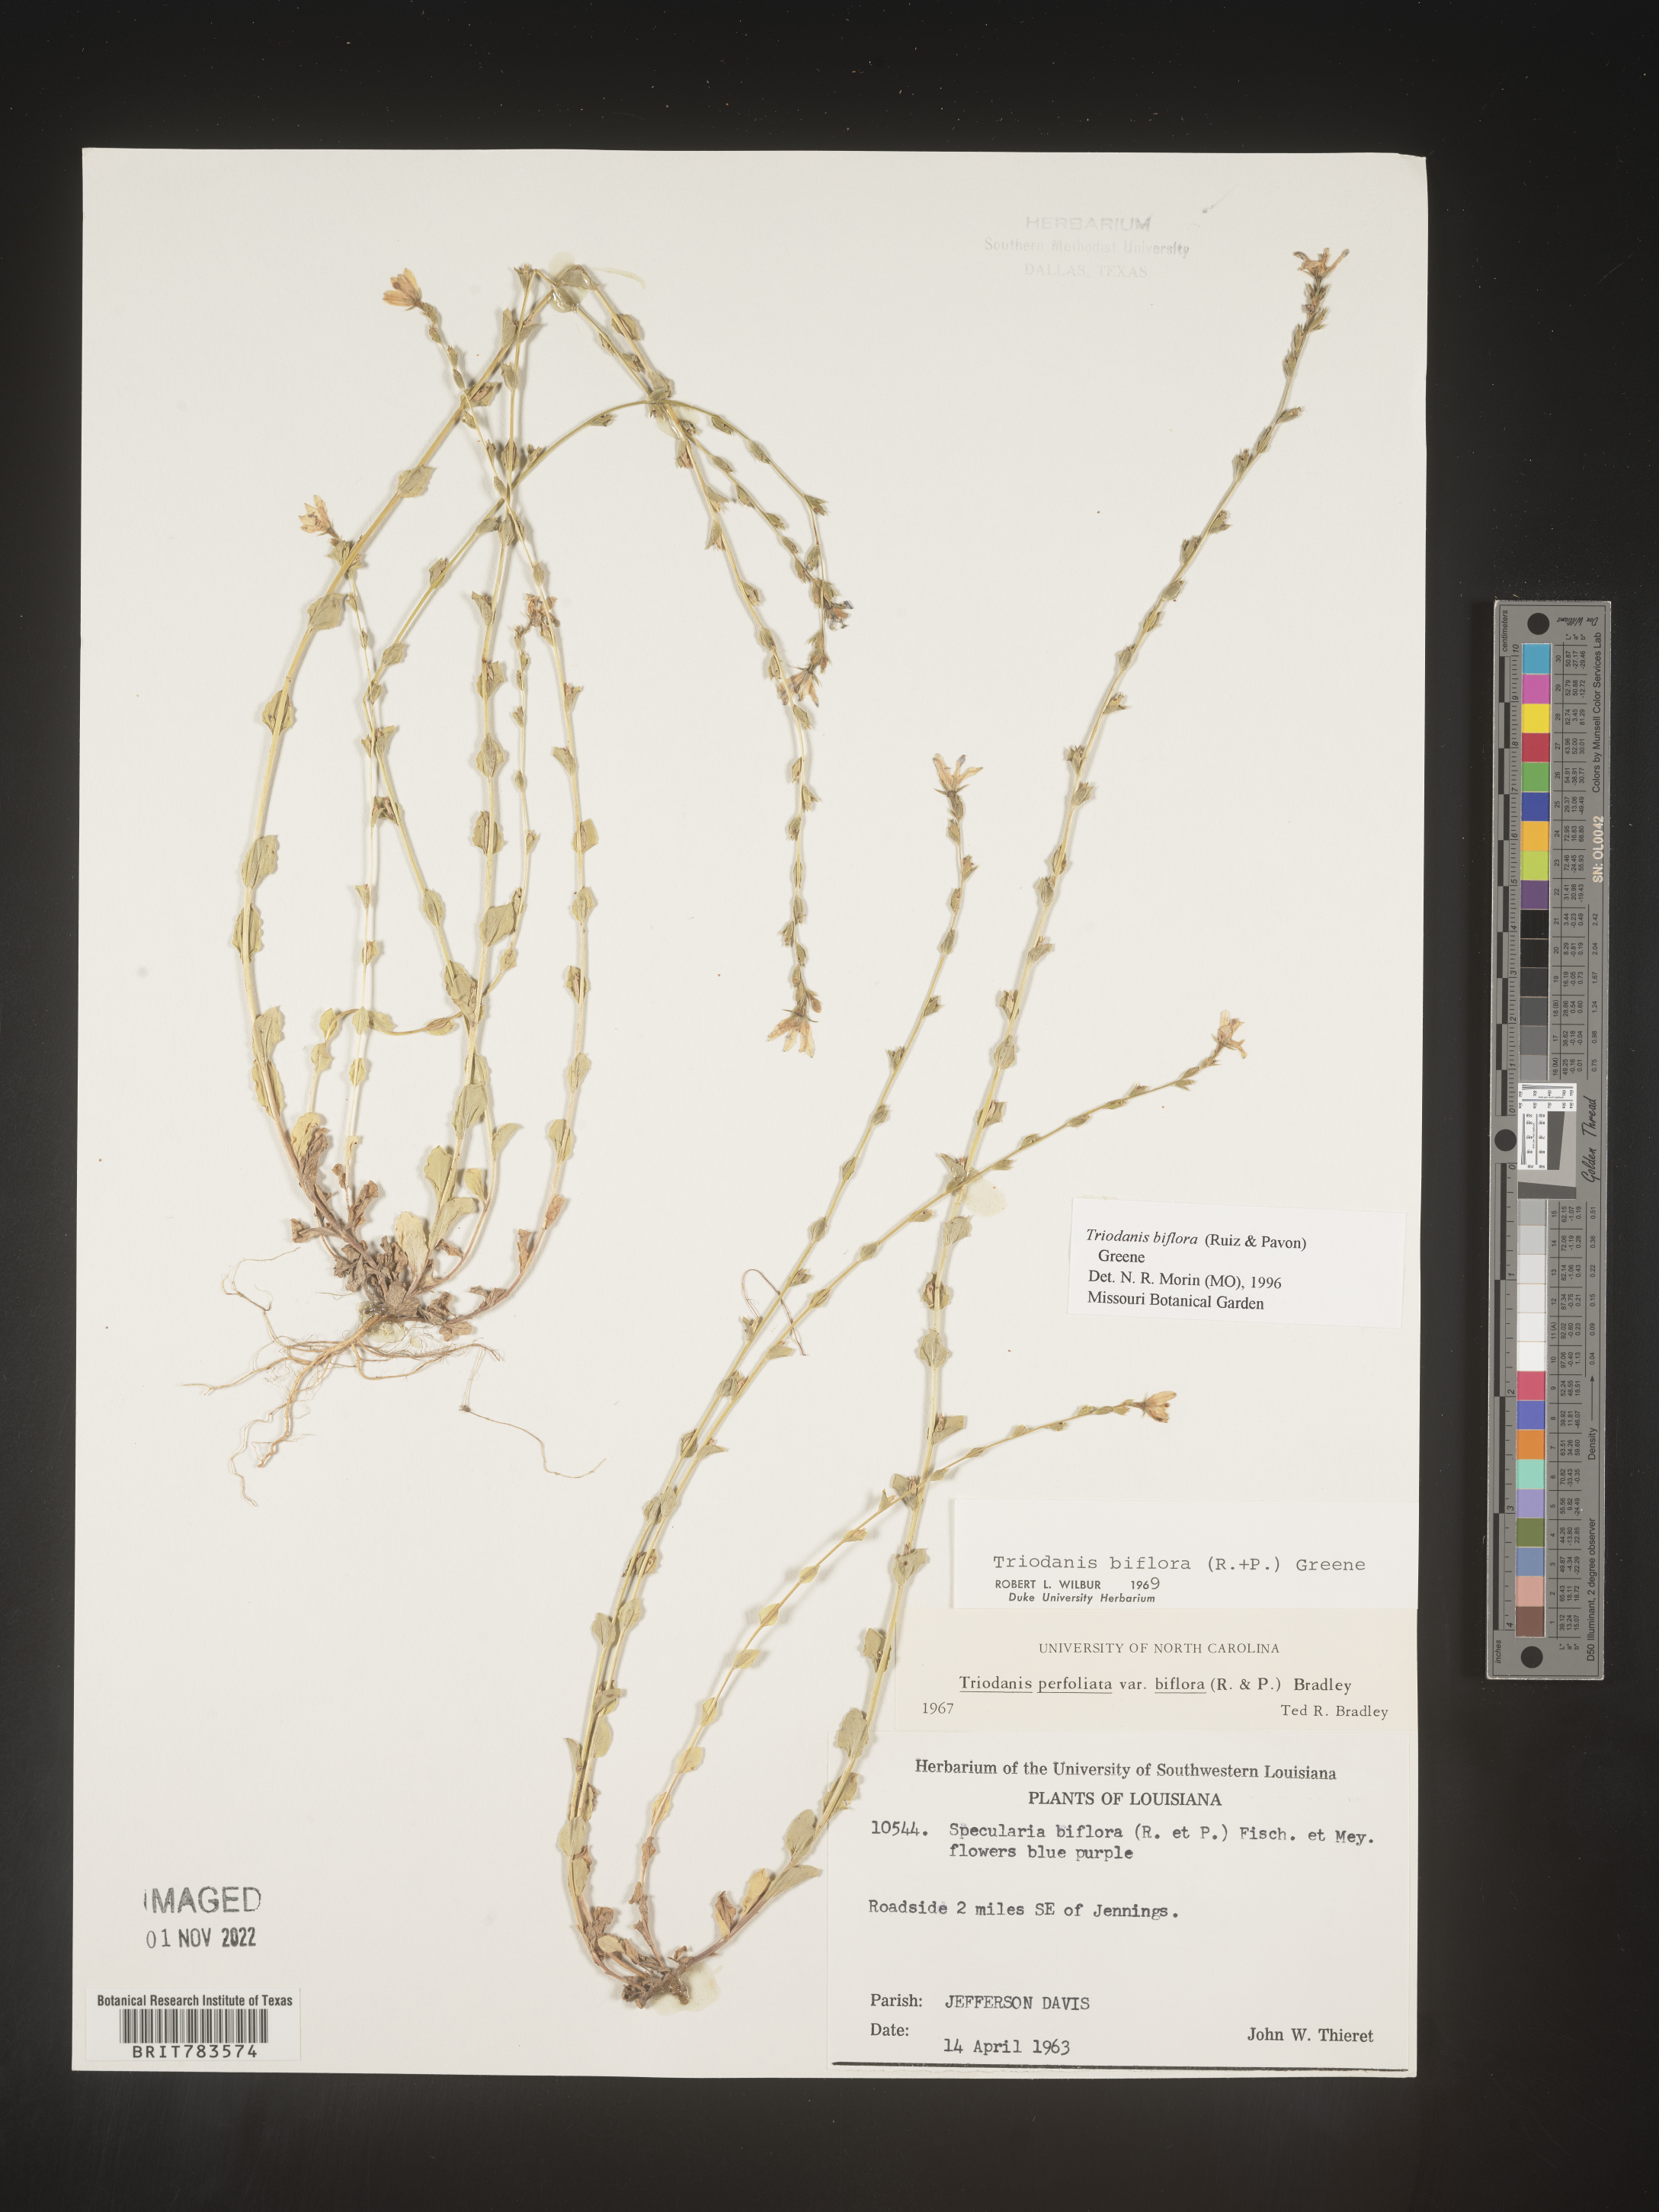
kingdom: Plantae
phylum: Tracheophyta
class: Magnoliopsida
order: Asterales
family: Campanulaceae
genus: Triodanis
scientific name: Triodanis perfoliata
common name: Clasping venus' looking-glass
